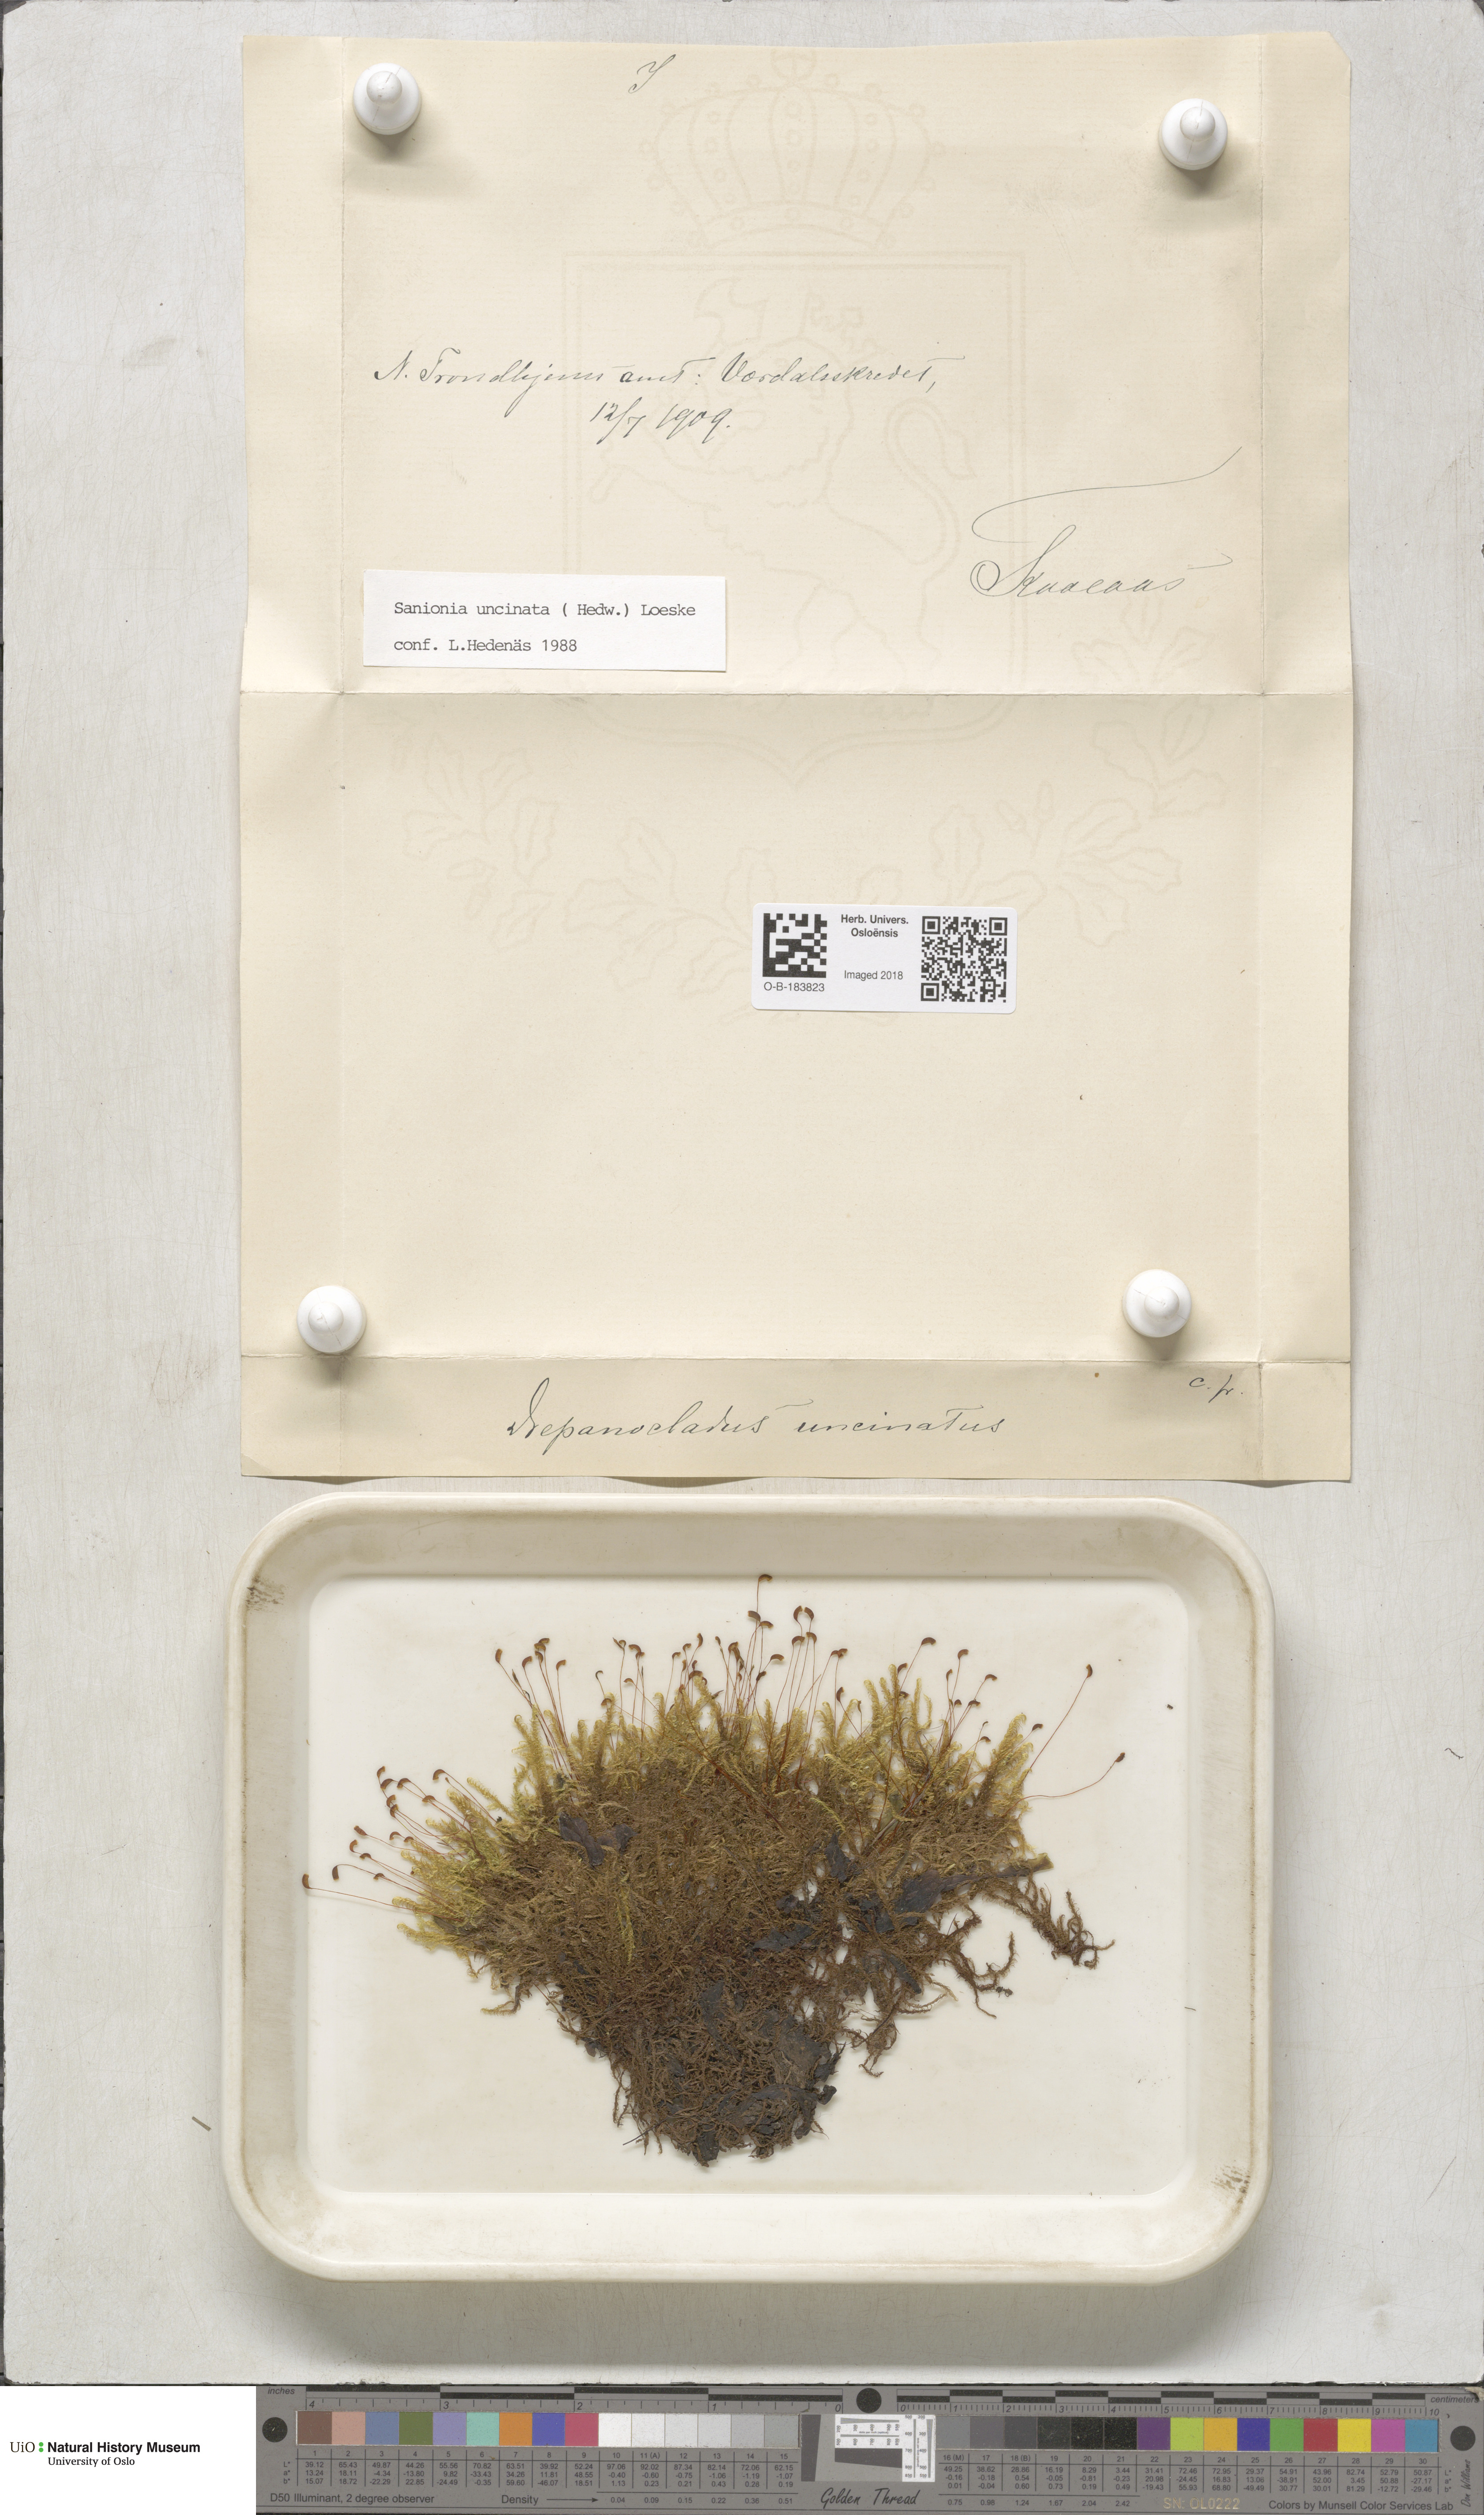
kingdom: Plantae
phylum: Bryophyta
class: Bryopsida
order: Hypnales
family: Scorpidiaceae
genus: Sanionia
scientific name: Sanionia uncinata
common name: Sickle moss
